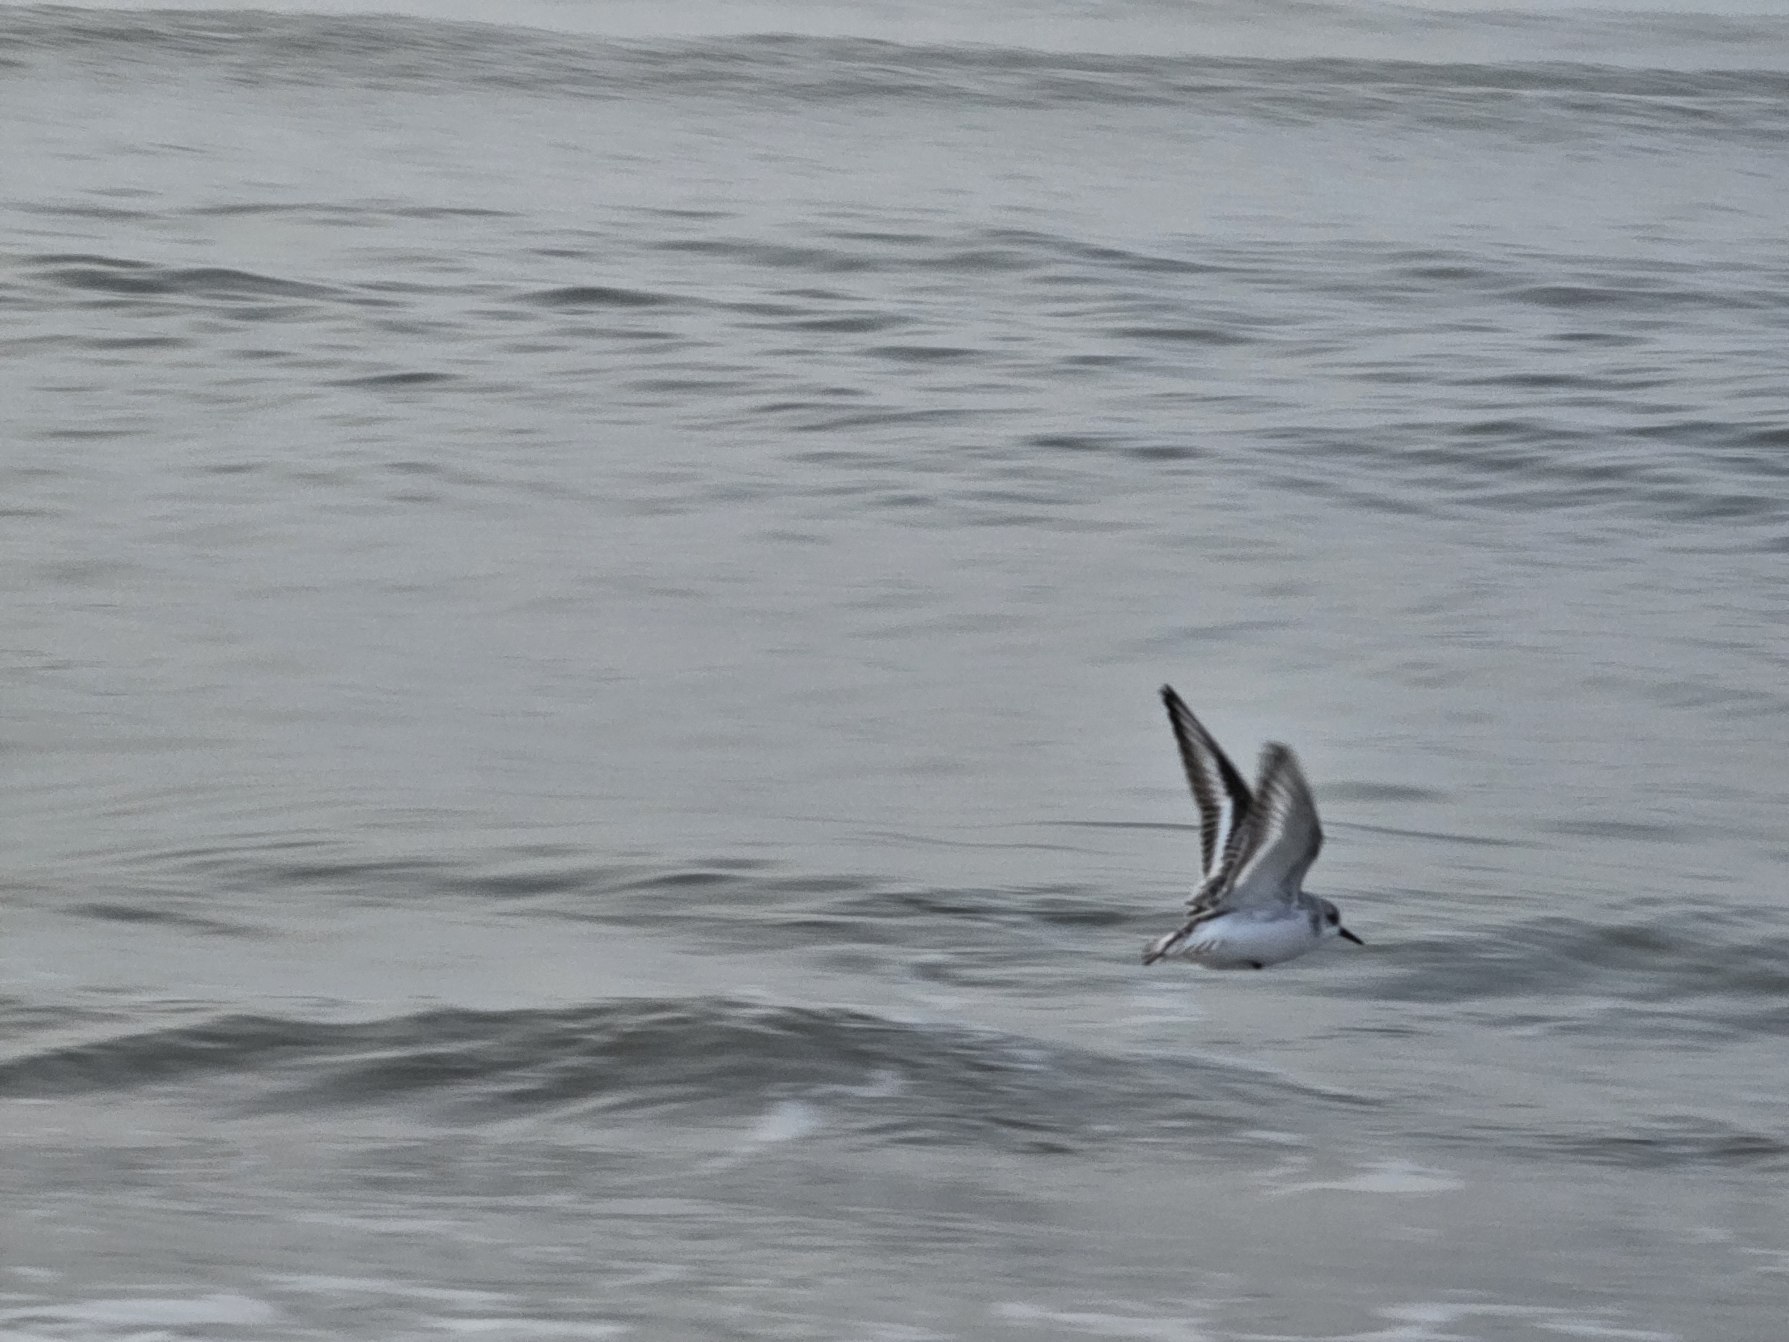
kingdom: Animalia
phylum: Chordata
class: Aves
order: Charadriiformes
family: Scolopacidae
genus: Calidris
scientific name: Calidris alba
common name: Sandløber
